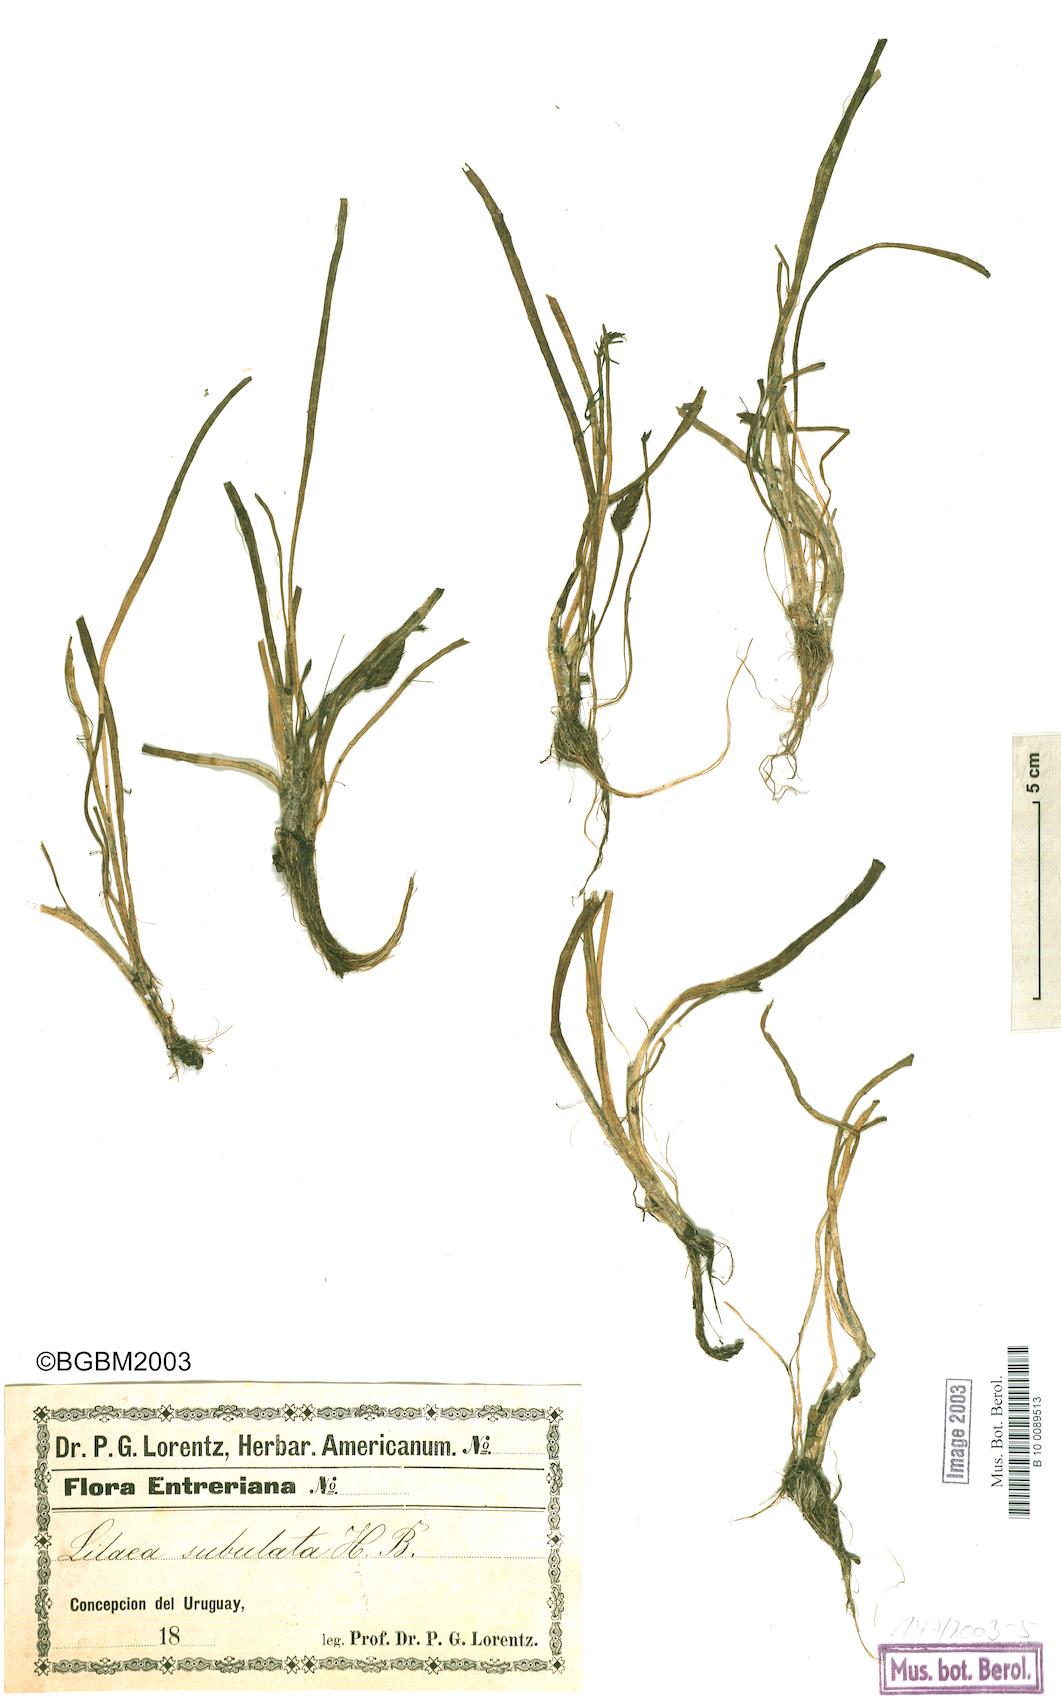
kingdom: Plantae
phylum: Tracheophyta
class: Liliopsida
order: Alismatales
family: Juncaginaceae
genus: Triglochin
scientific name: Triglochin scilloides
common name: Awl-leaved lilaea
